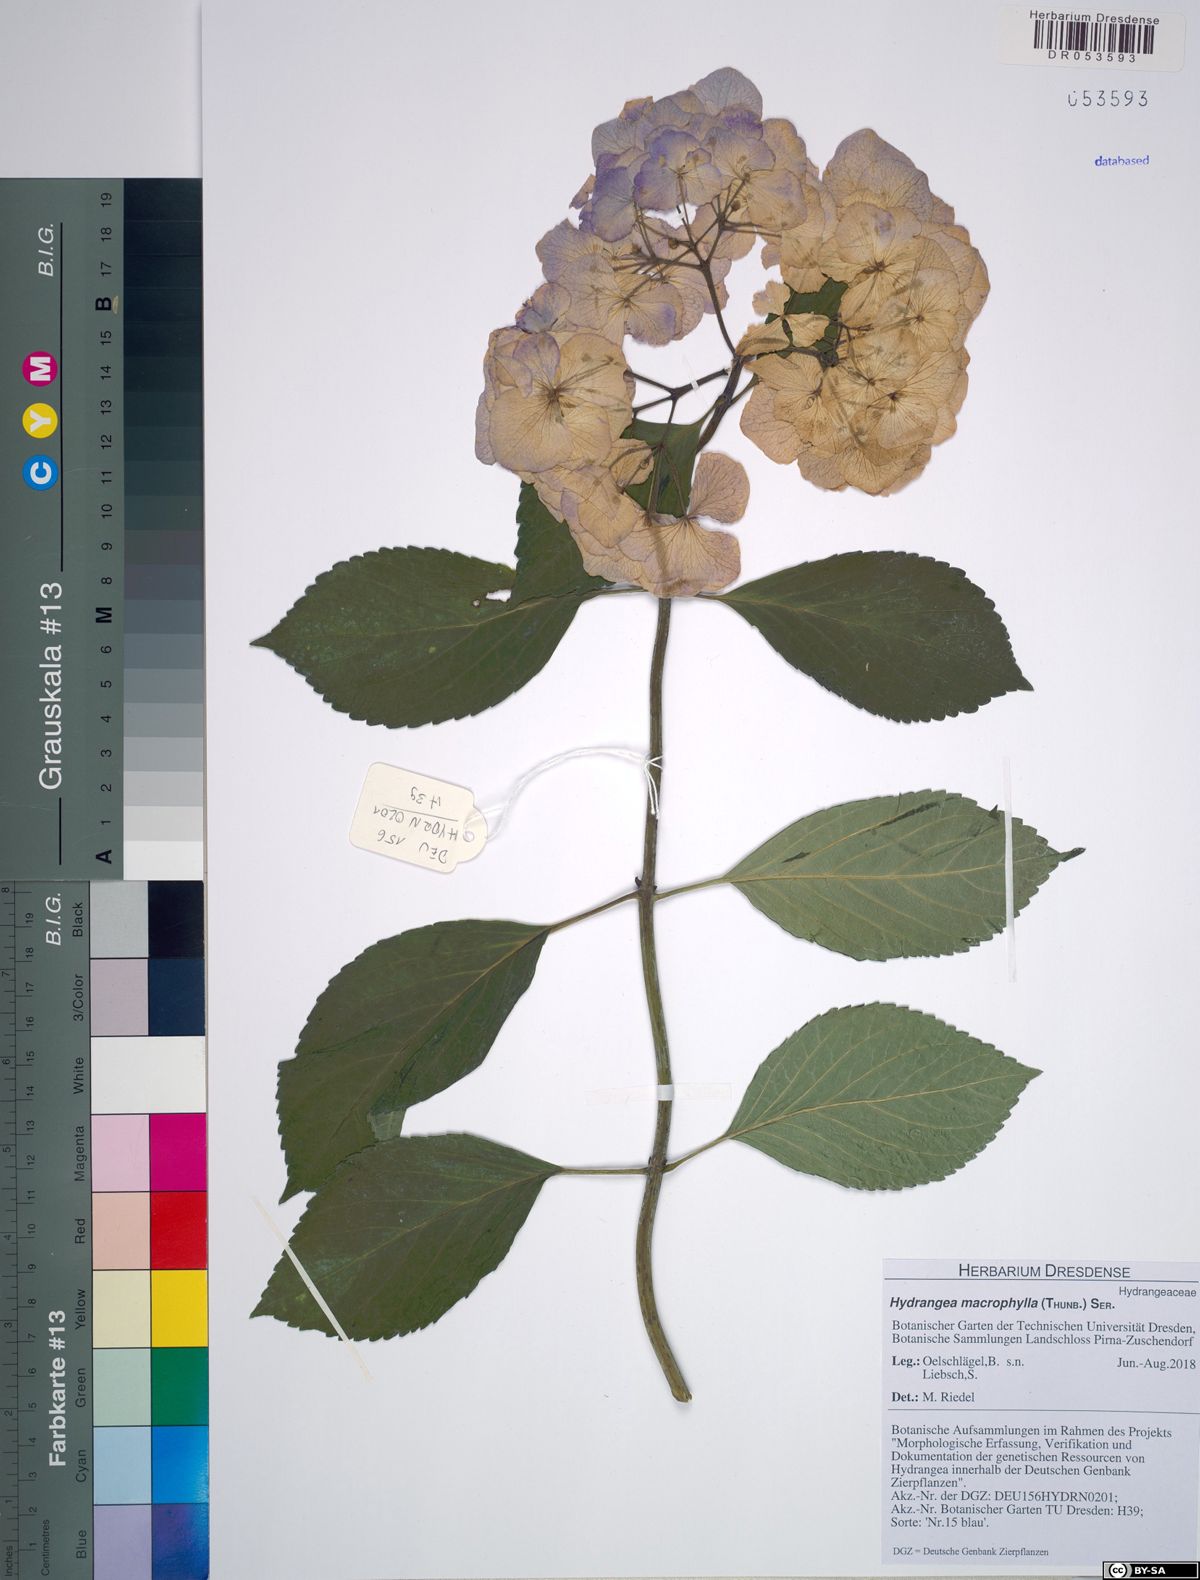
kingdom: Plantae
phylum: Tracheophyta
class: Magnoliopsida
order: Cornales
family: Hydrangeaceae
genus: Hydrangea
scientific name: Hydrangea macrophylla
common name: Hydrangea
